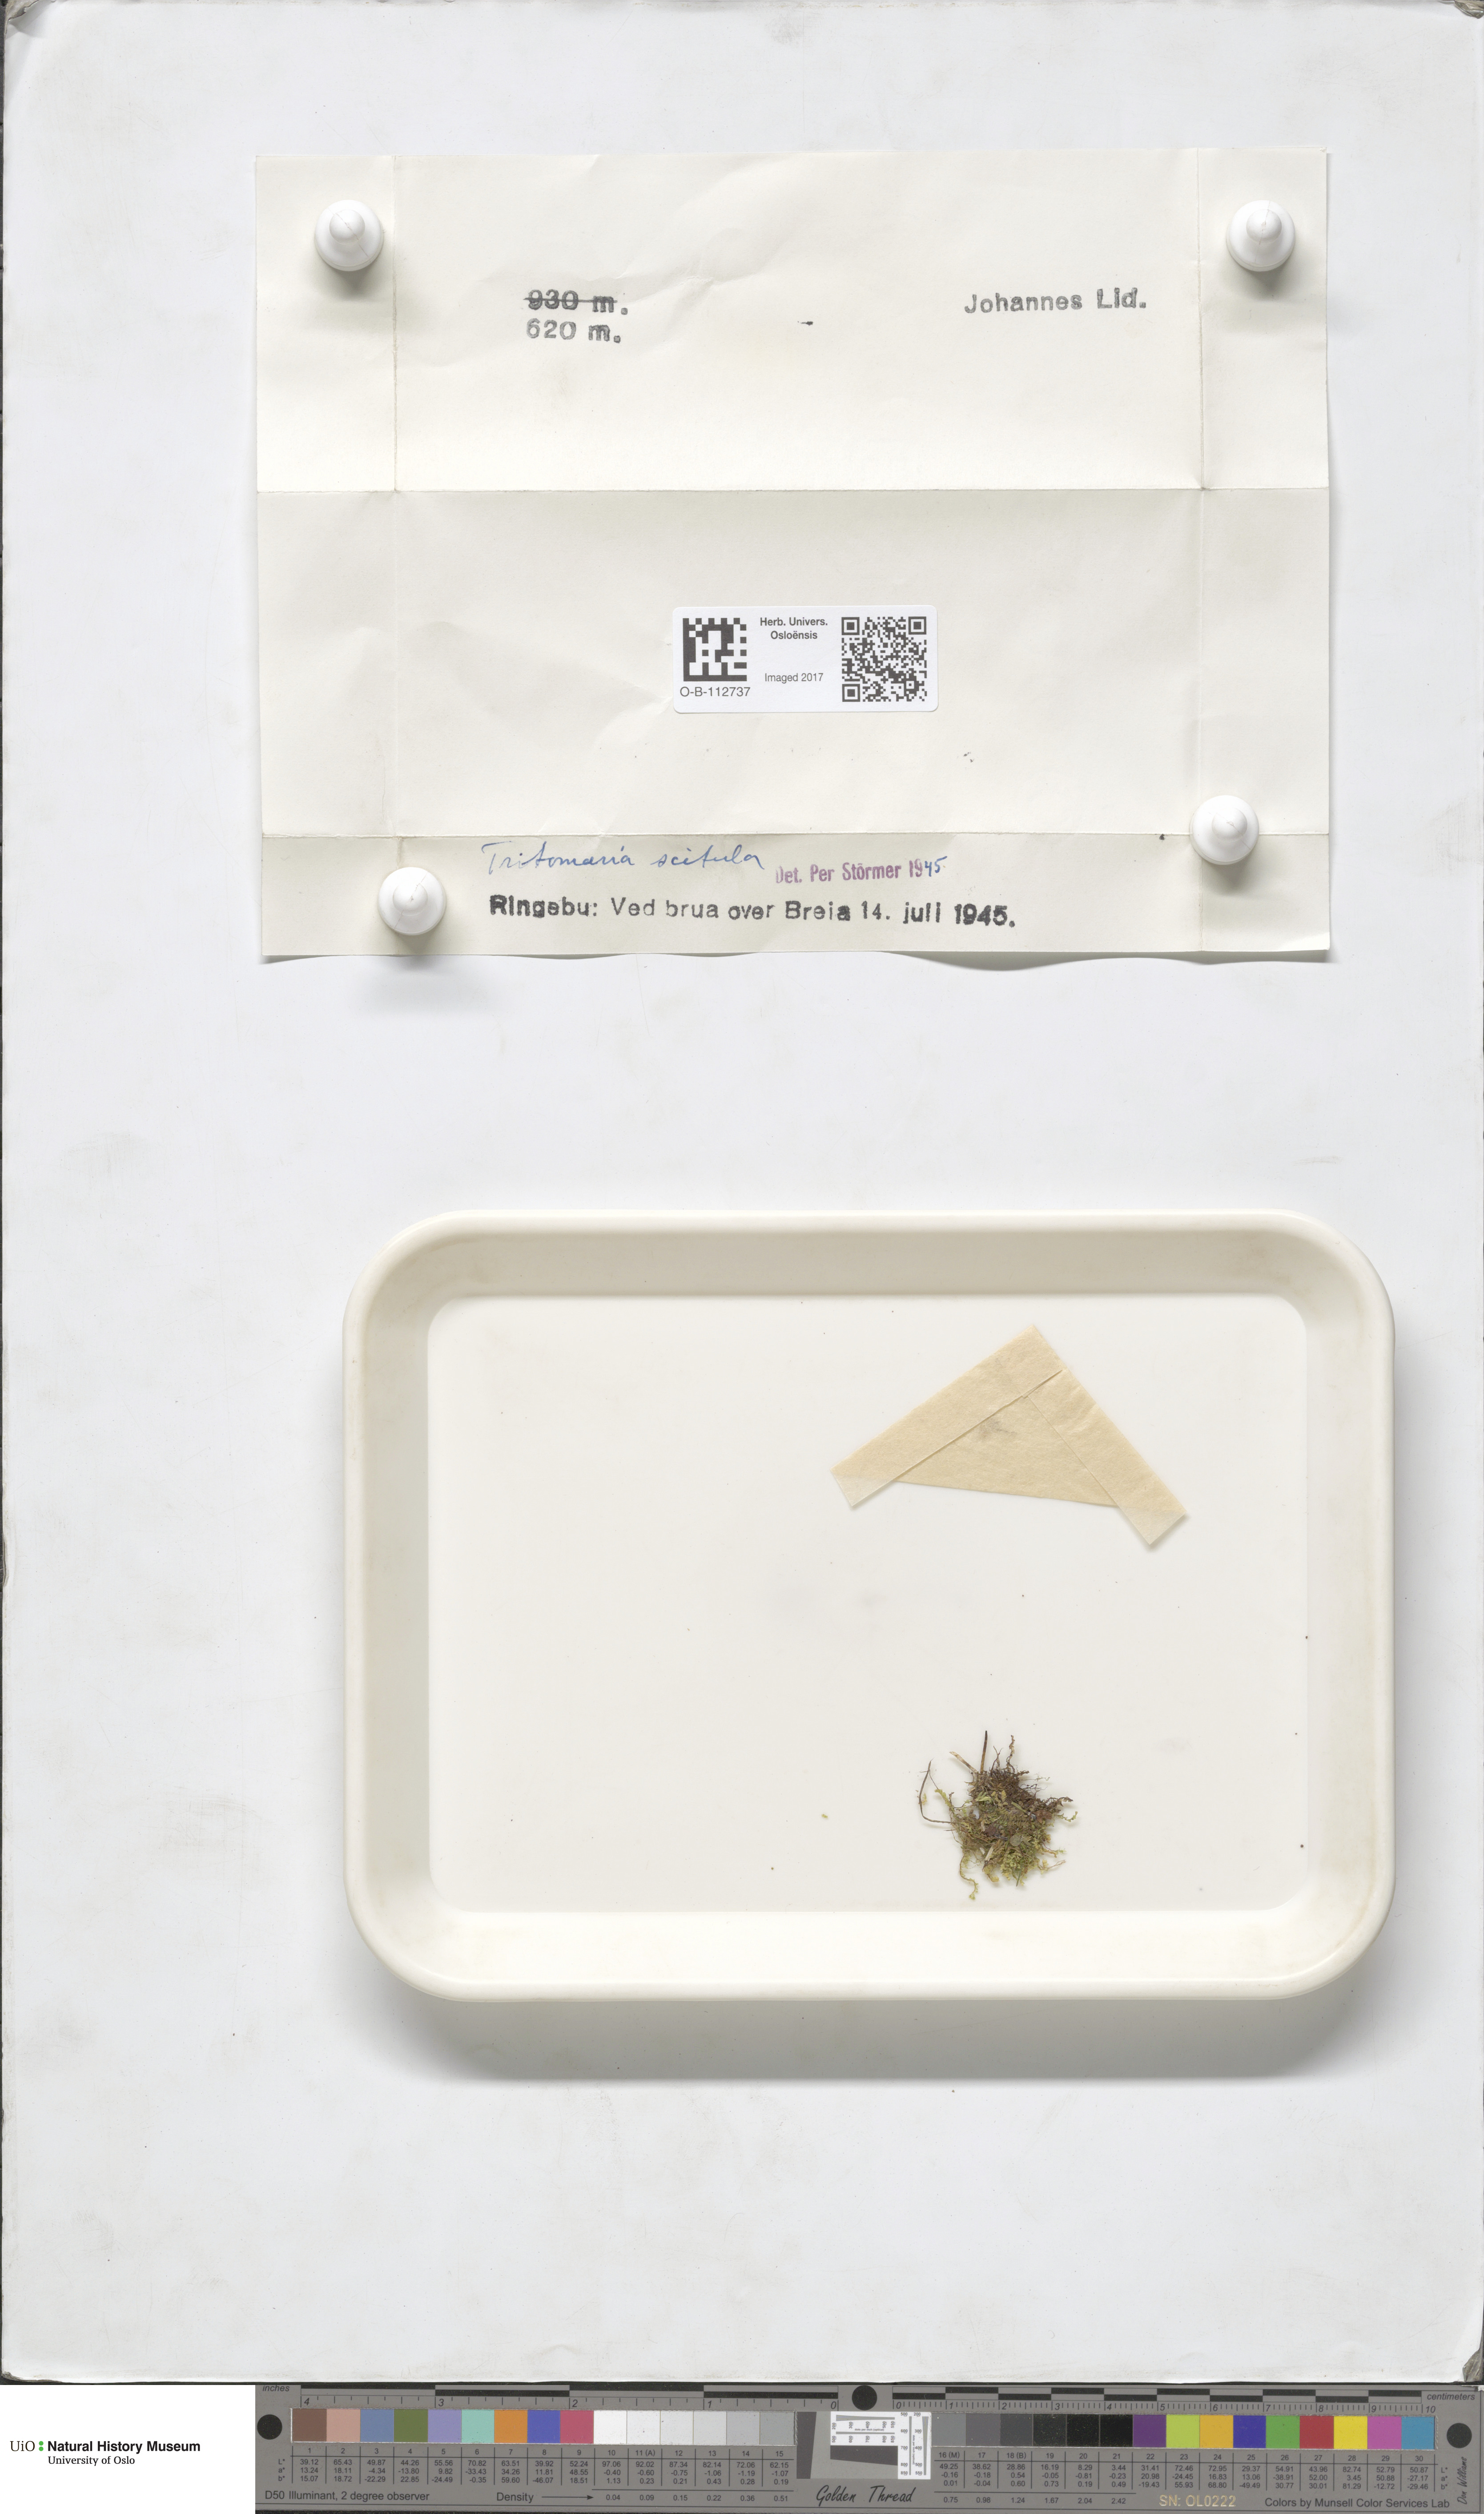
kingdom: Plantae
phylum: Marchantiophyta
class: Jungermanniopsida
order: Jungermanniales
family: Lophoziaceae
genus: Tritomaria
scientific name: Tritomaria scitula
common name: Mountain notchwort
